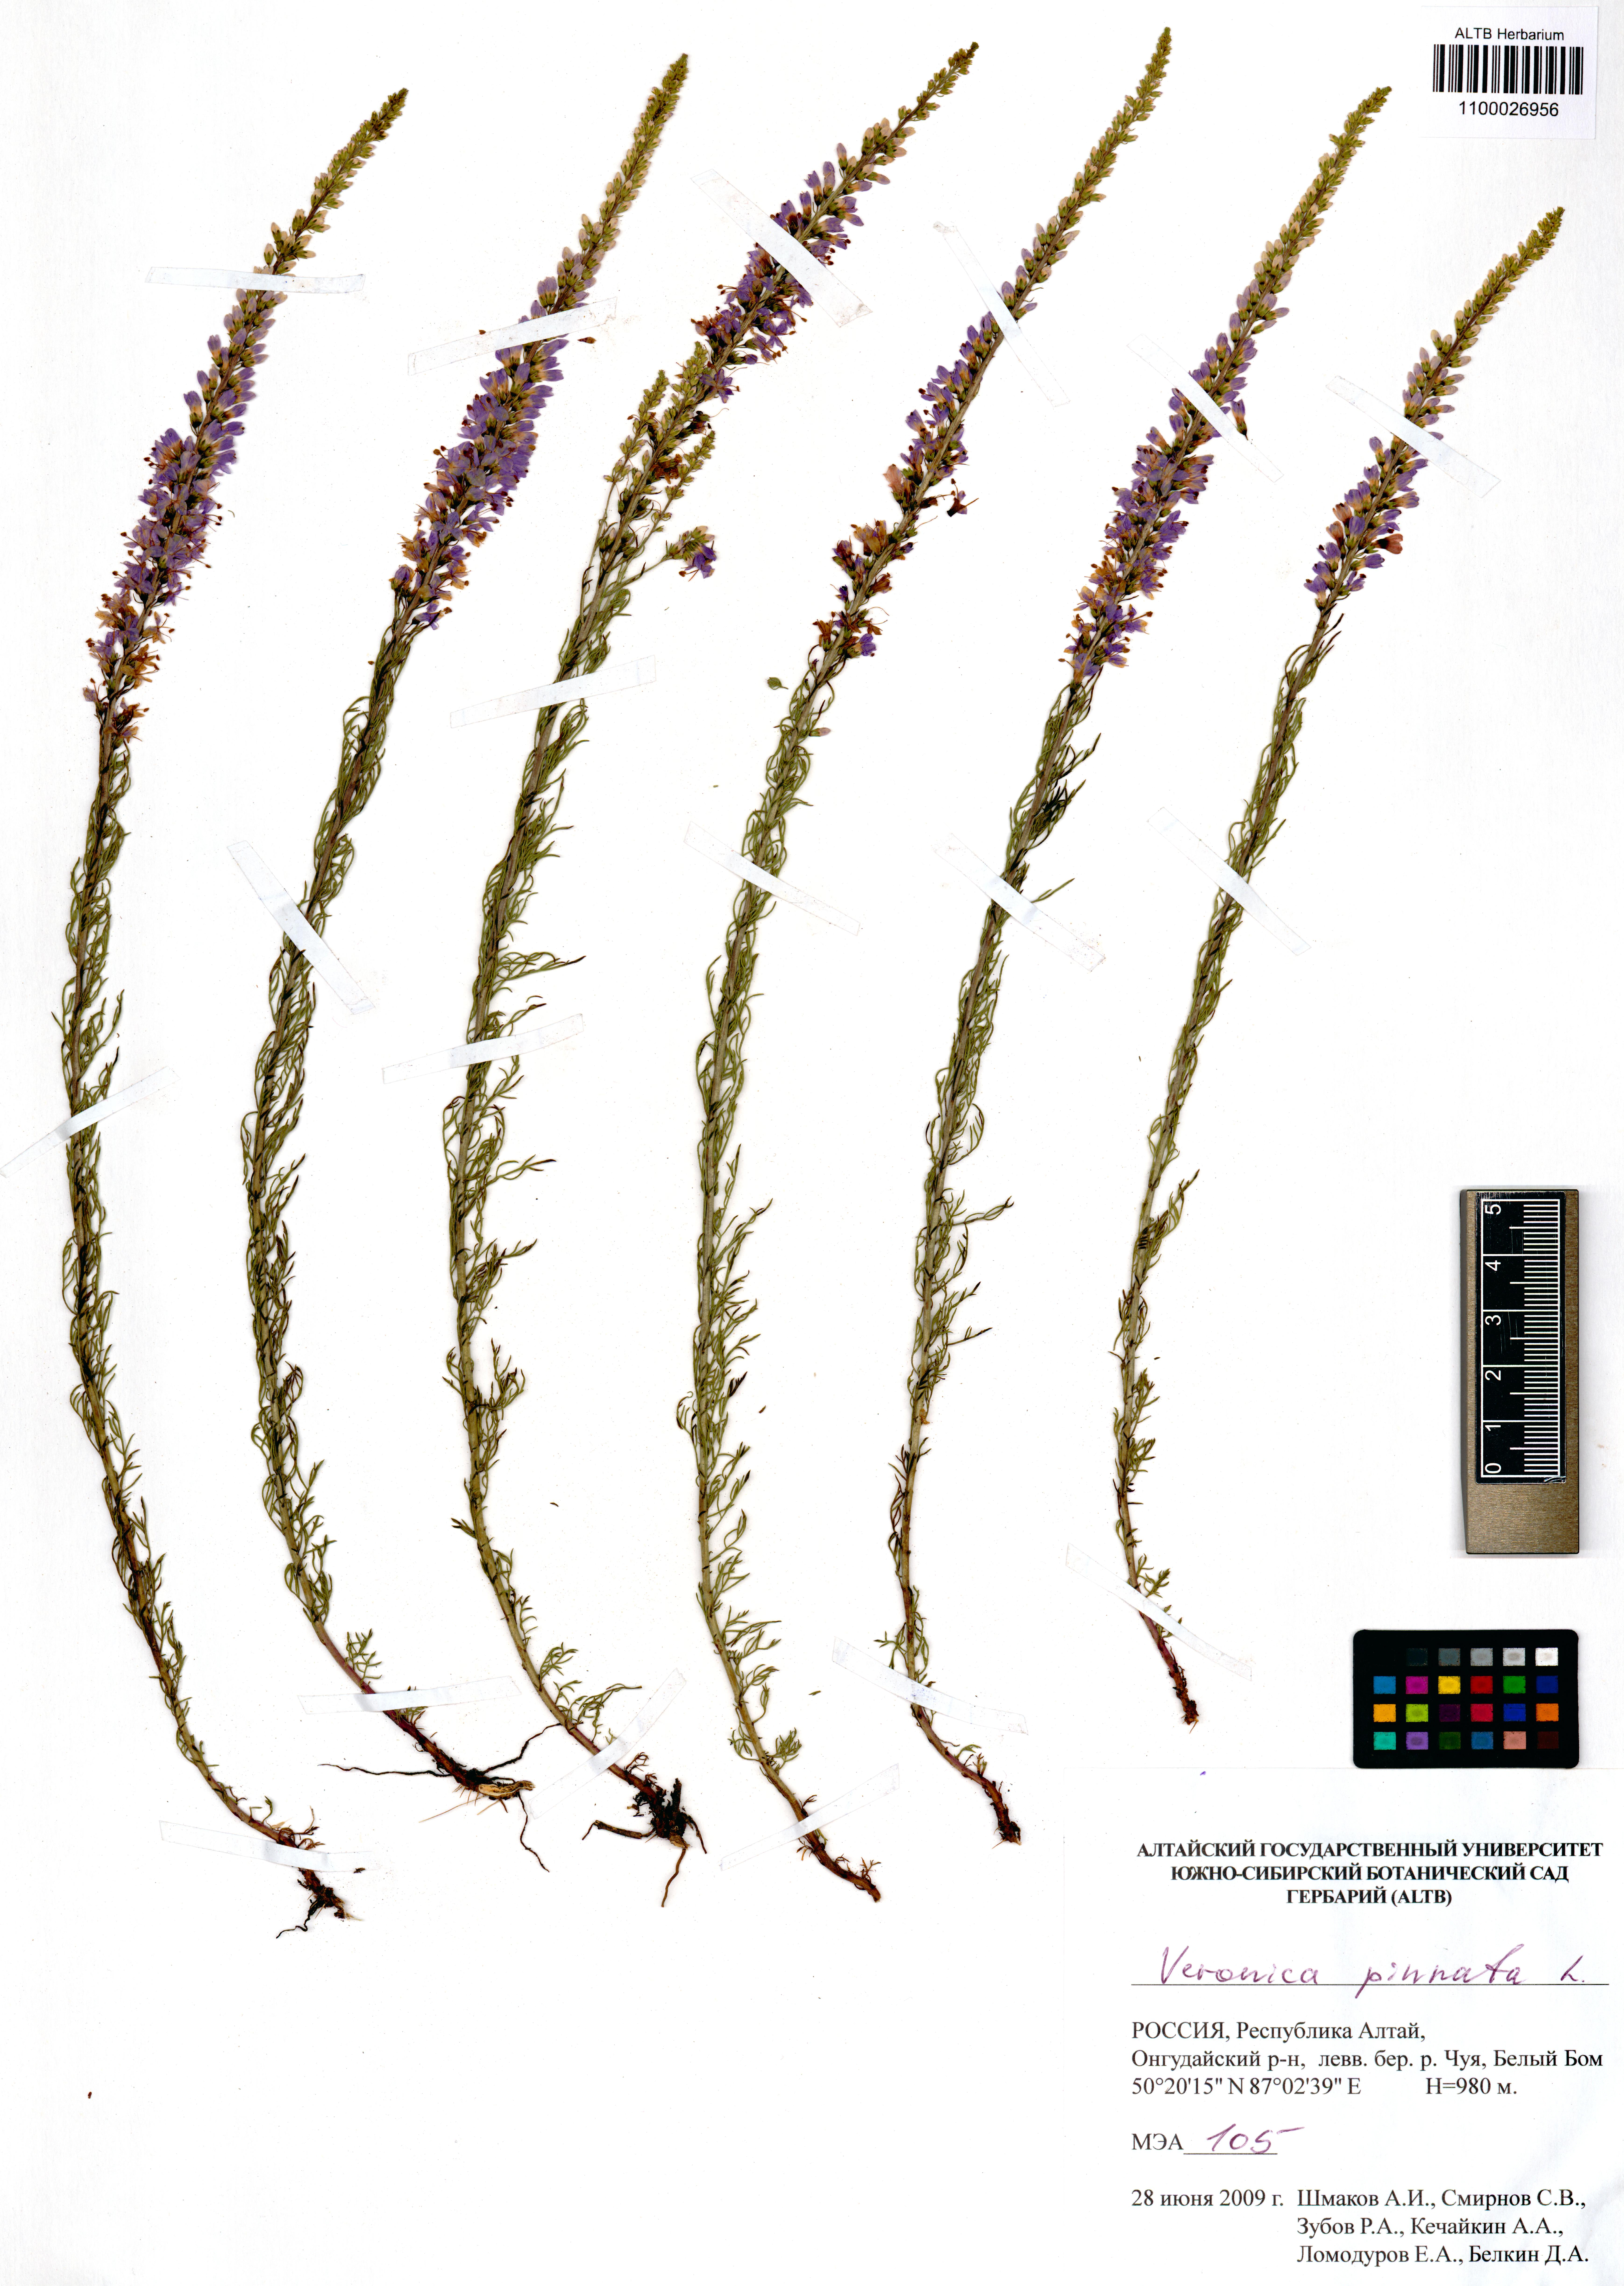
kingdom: Plantae
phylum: Tracheophyta
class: Magnoliopsida
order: Lamiales
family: Plantaginaceae
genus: Veronica
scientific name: Veronica pinnata
